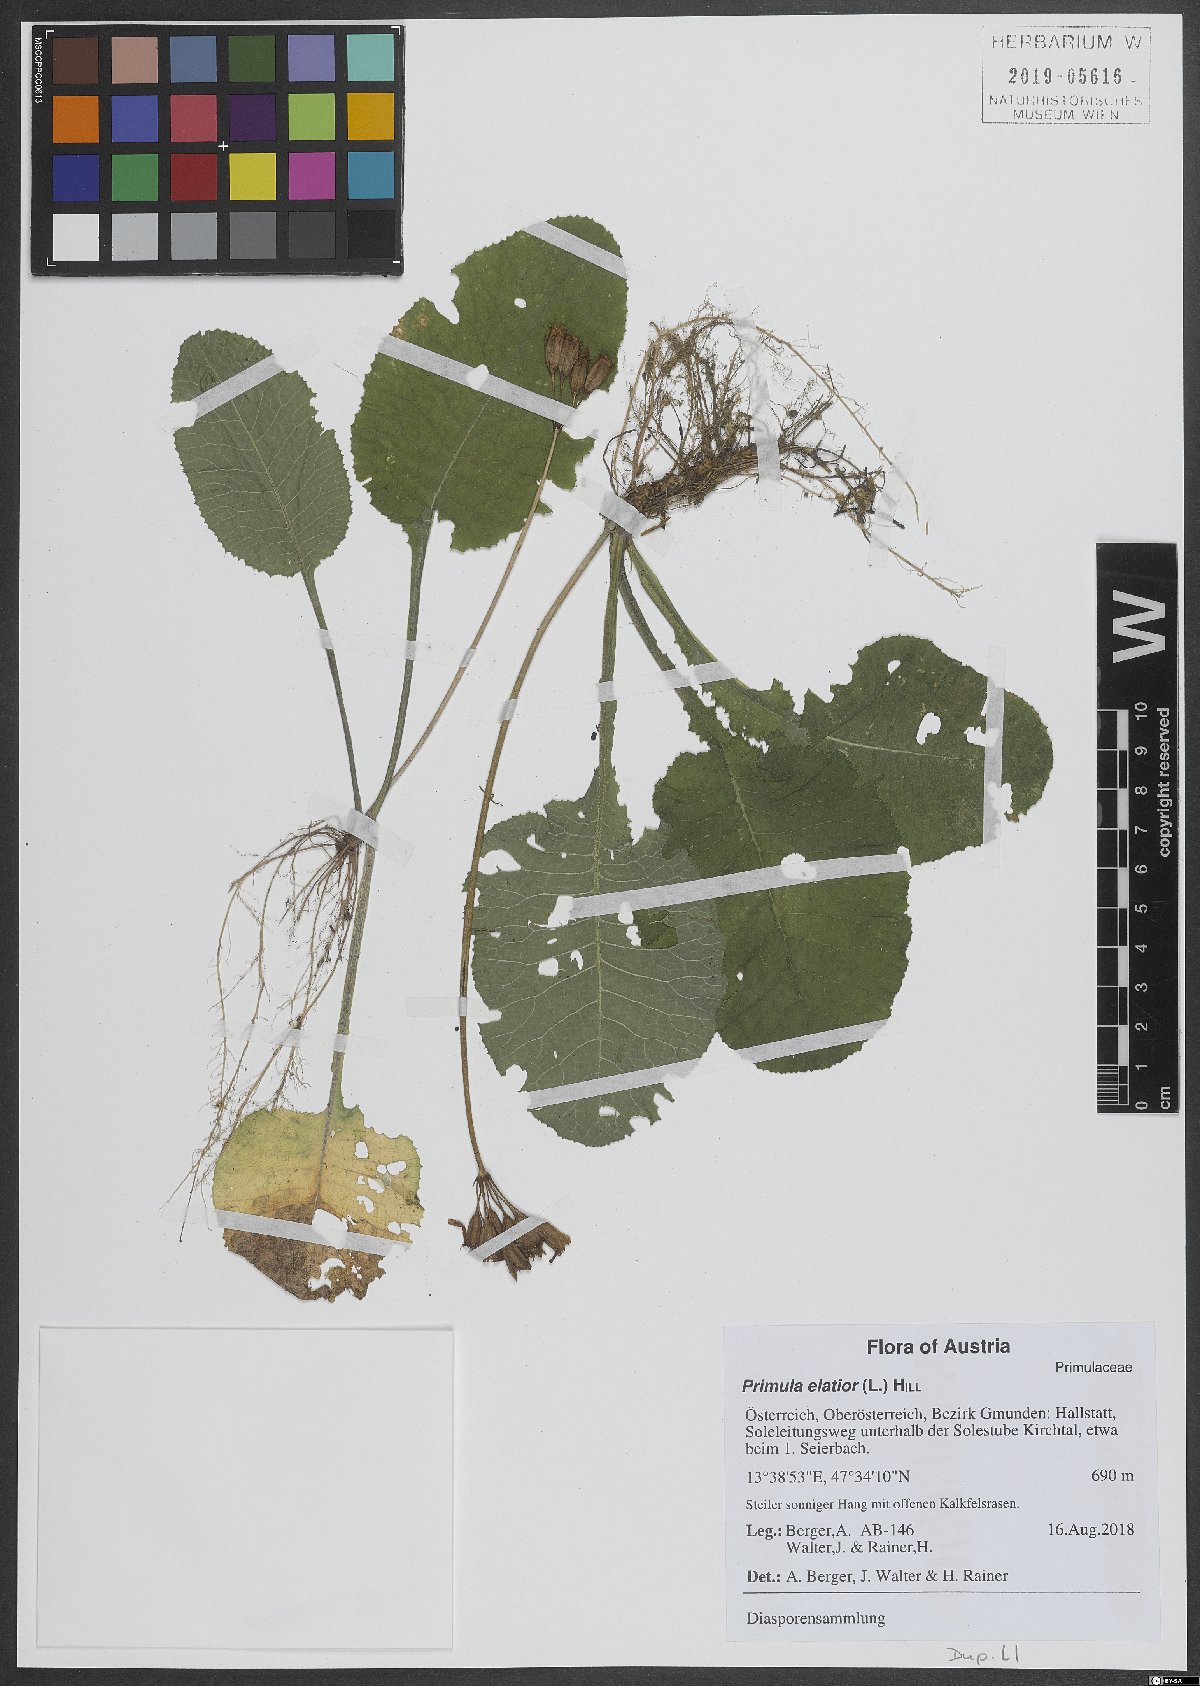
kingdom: Plantae
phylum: Tracheophyta
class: Magnoliopsida
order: Ericales
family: Primulaceae
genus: Primula
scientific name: Primula elatior
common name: Oxlip
